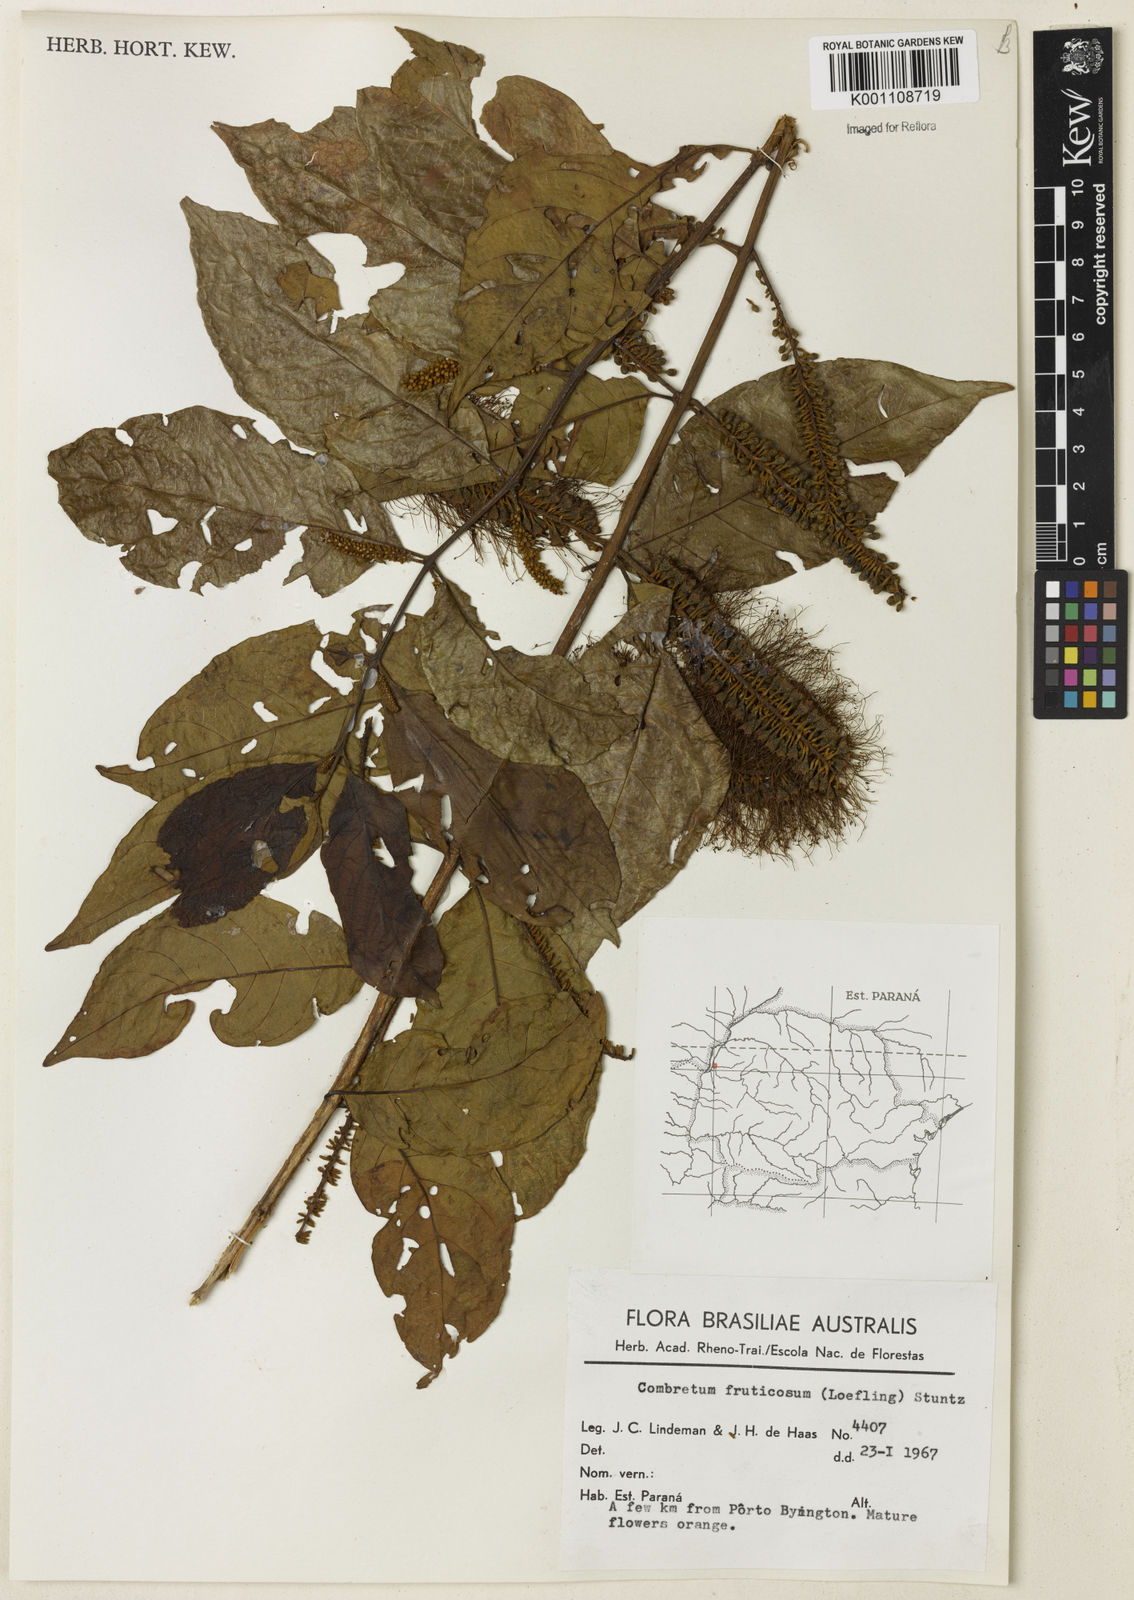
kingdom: Plantae
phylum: Tracheophyta
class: Magnoliopsida
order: Myrtales
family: Combretaceae
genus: Combretum
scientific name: Combretum fruticosum
